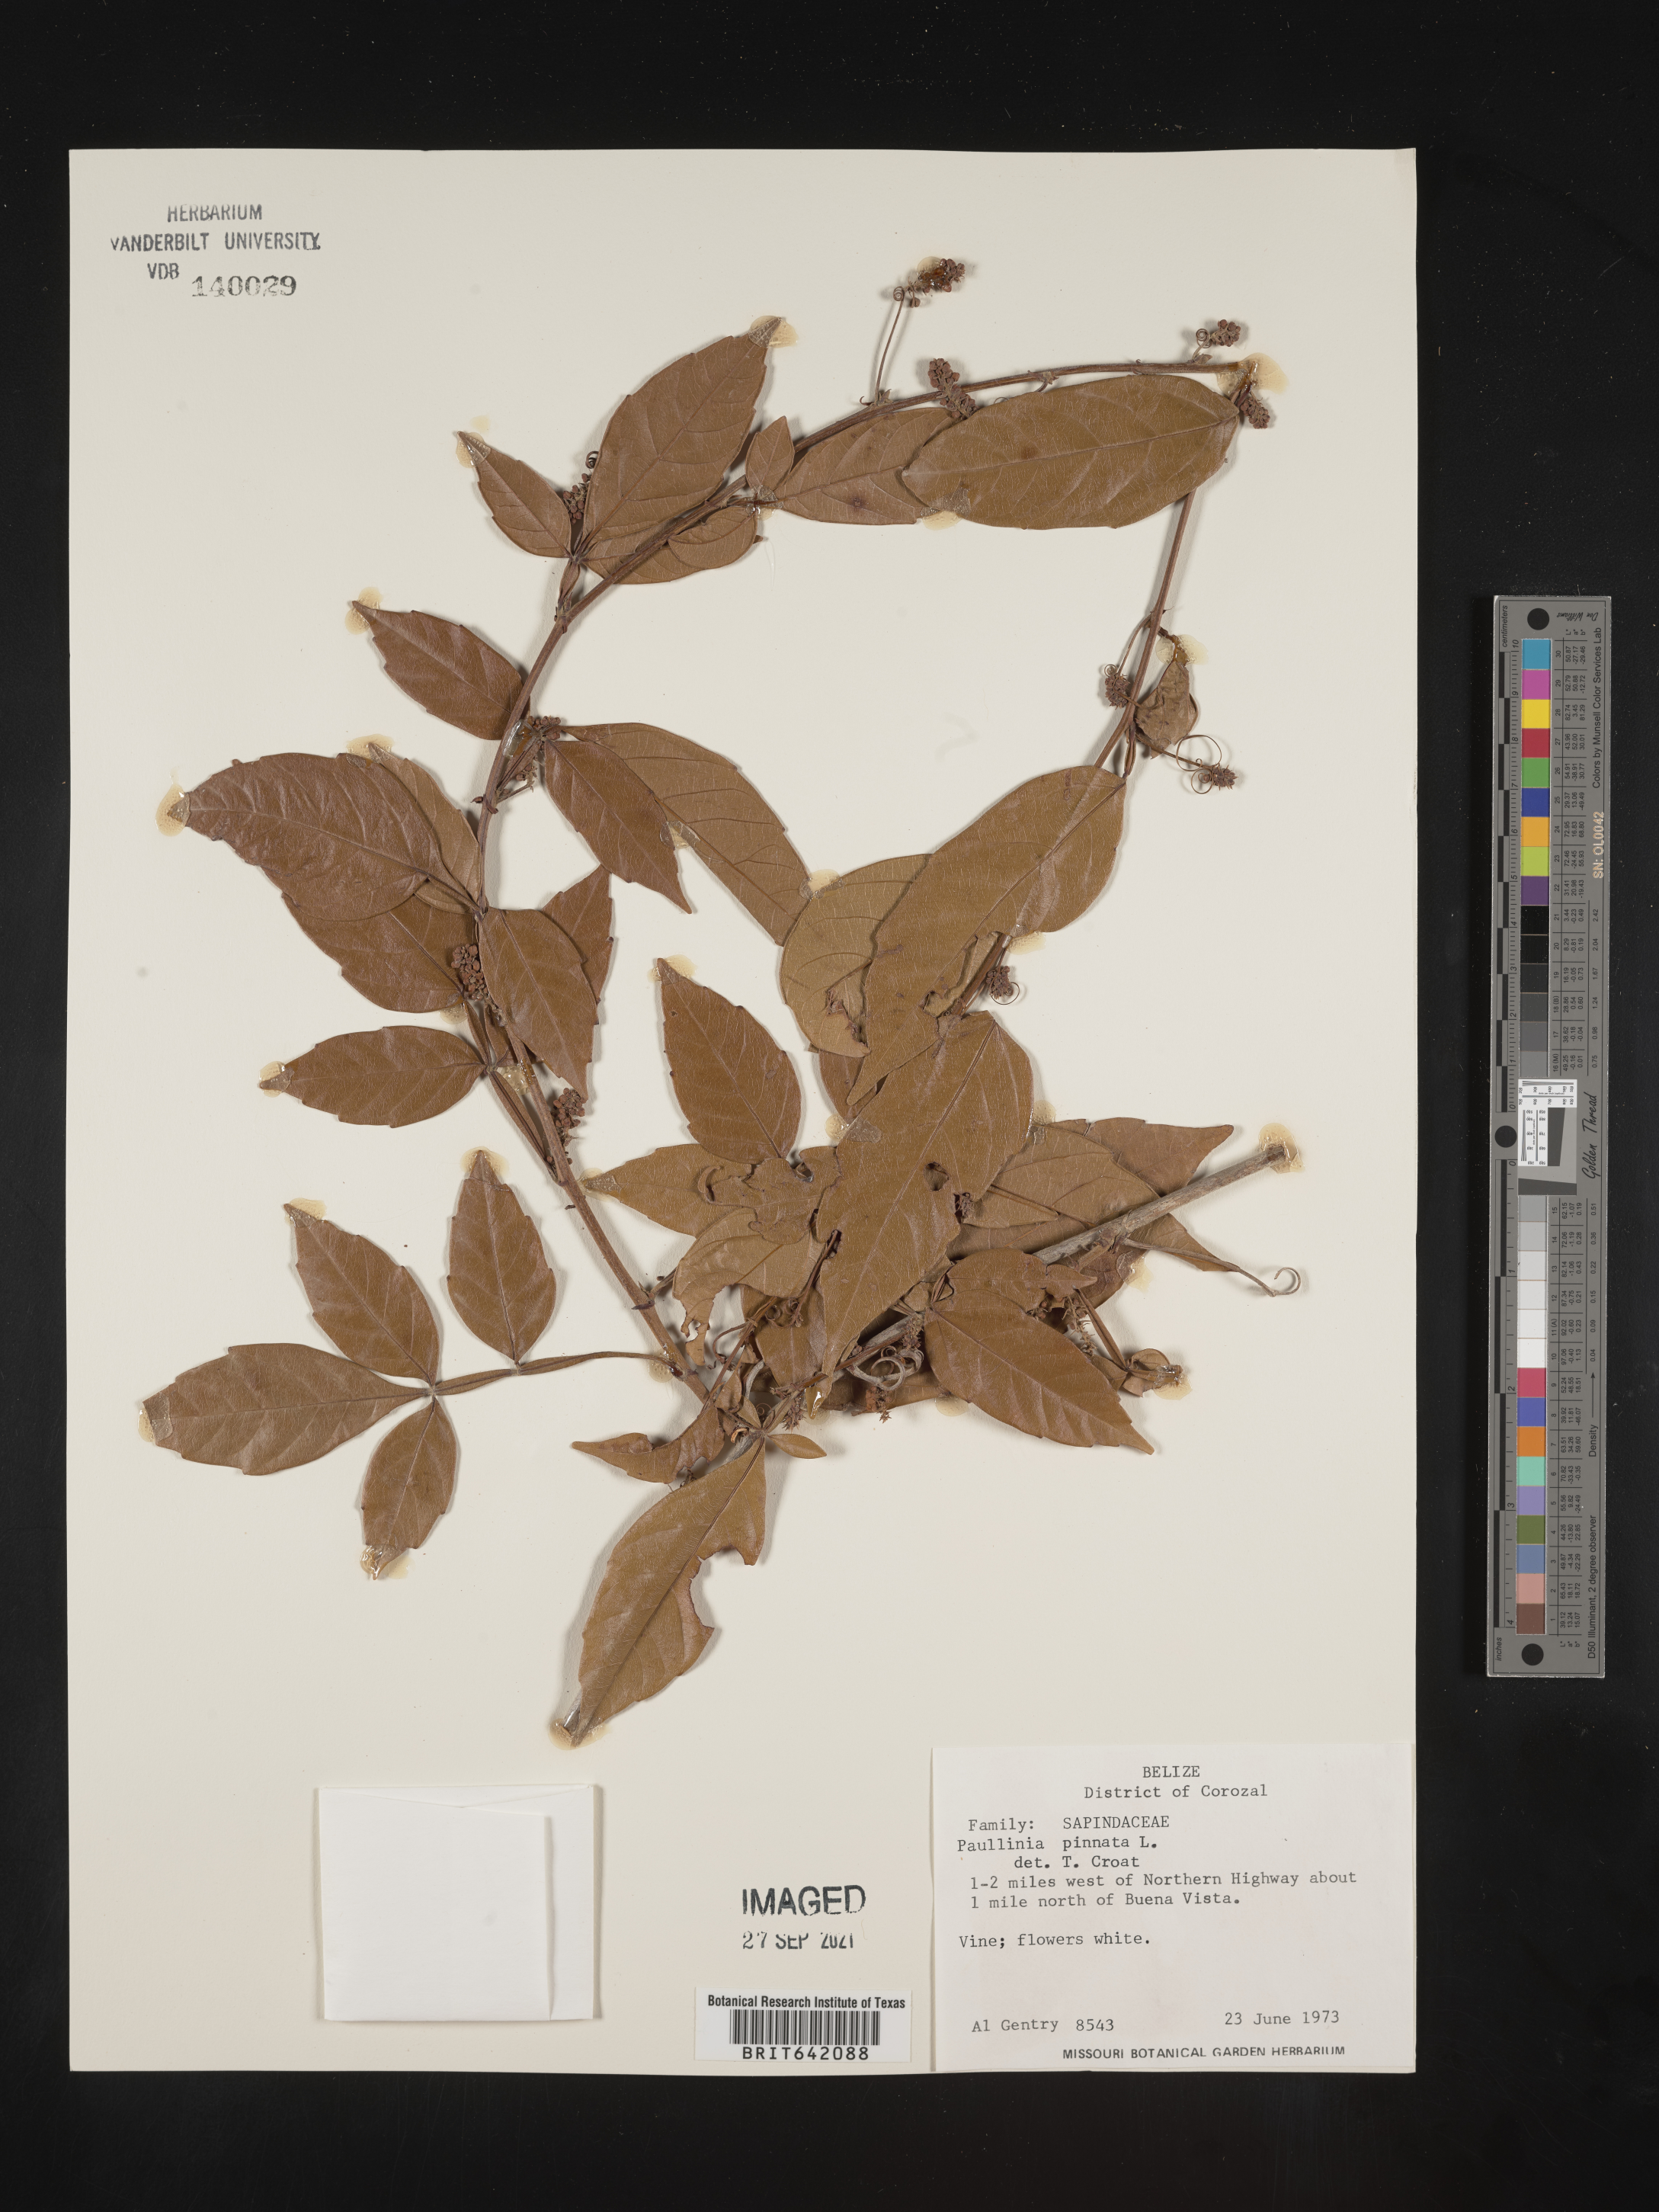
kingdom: Plantae
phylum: Tracheophyta
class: Magnoliopsida
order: Sapindales
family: Sapindaceae
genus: Paullinia
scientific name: Paullinia
